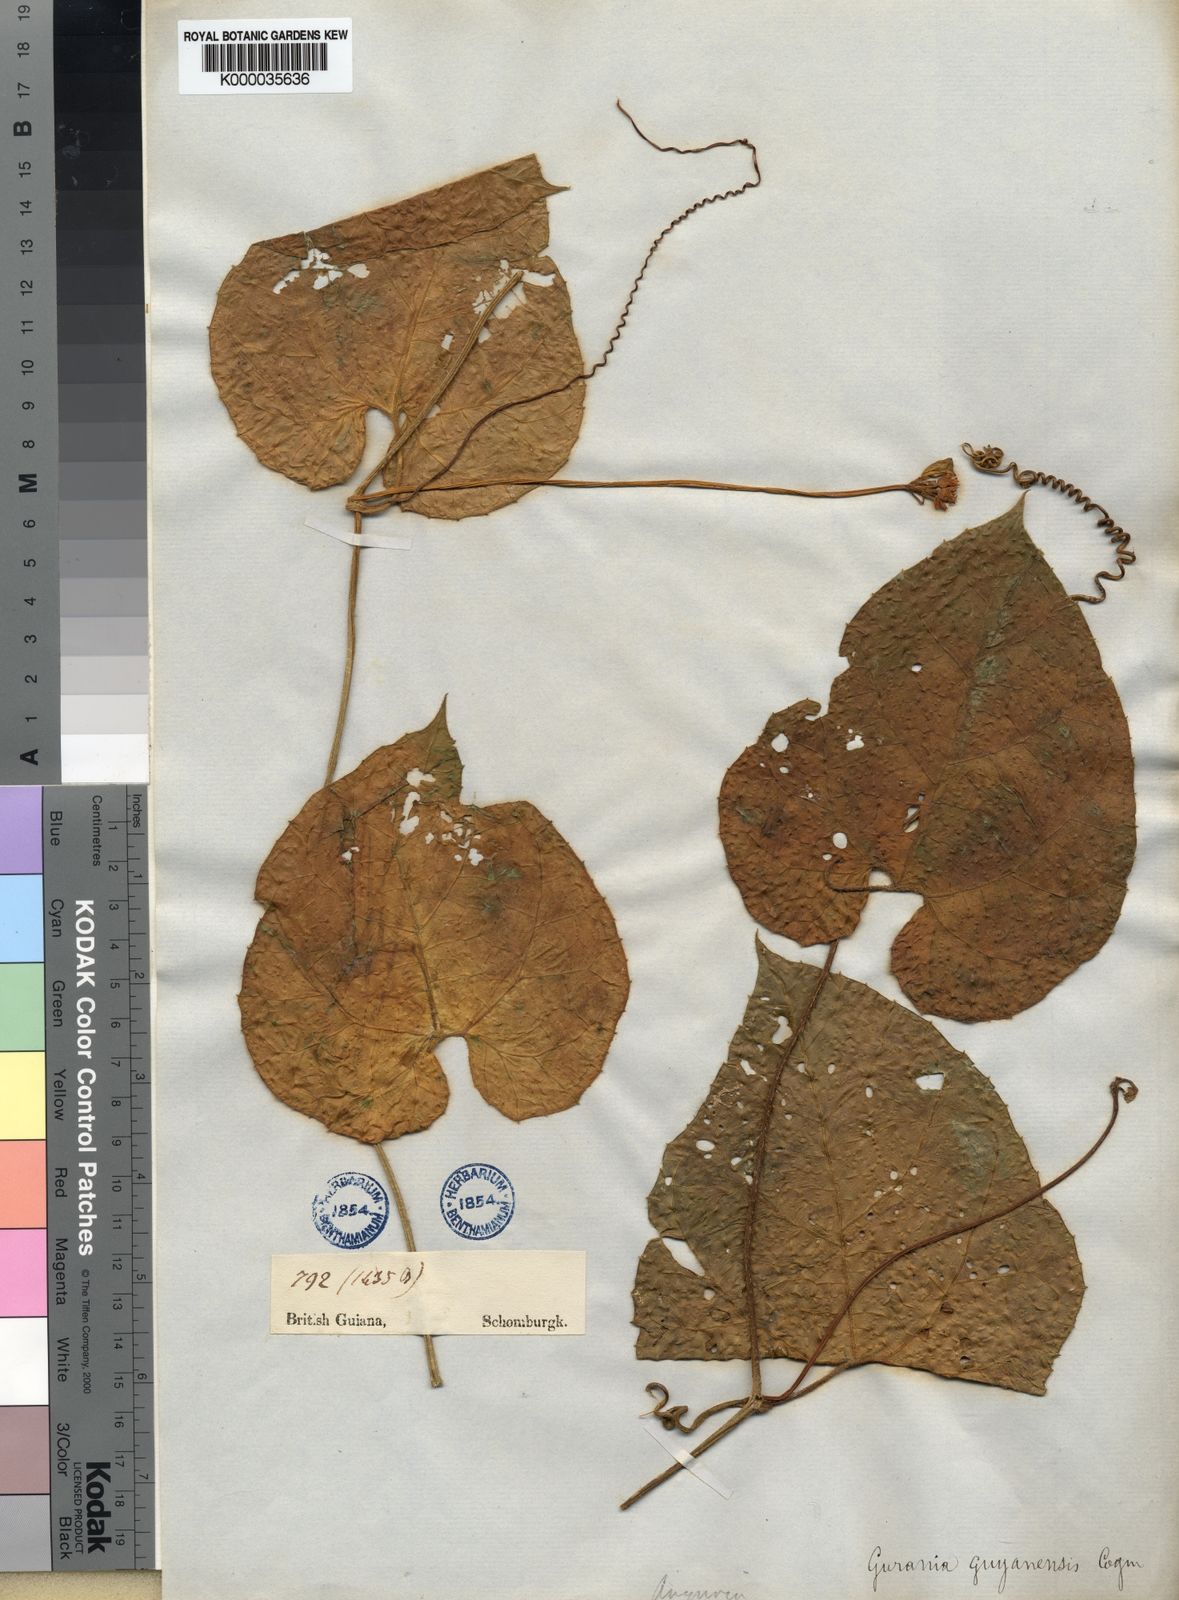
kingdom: Plantae
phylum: Tracheophyta
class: Magnoliopsida
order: Cucurbitales
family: Cucurbitaceae
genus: Gurania
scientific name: Gurania bignoniacea
